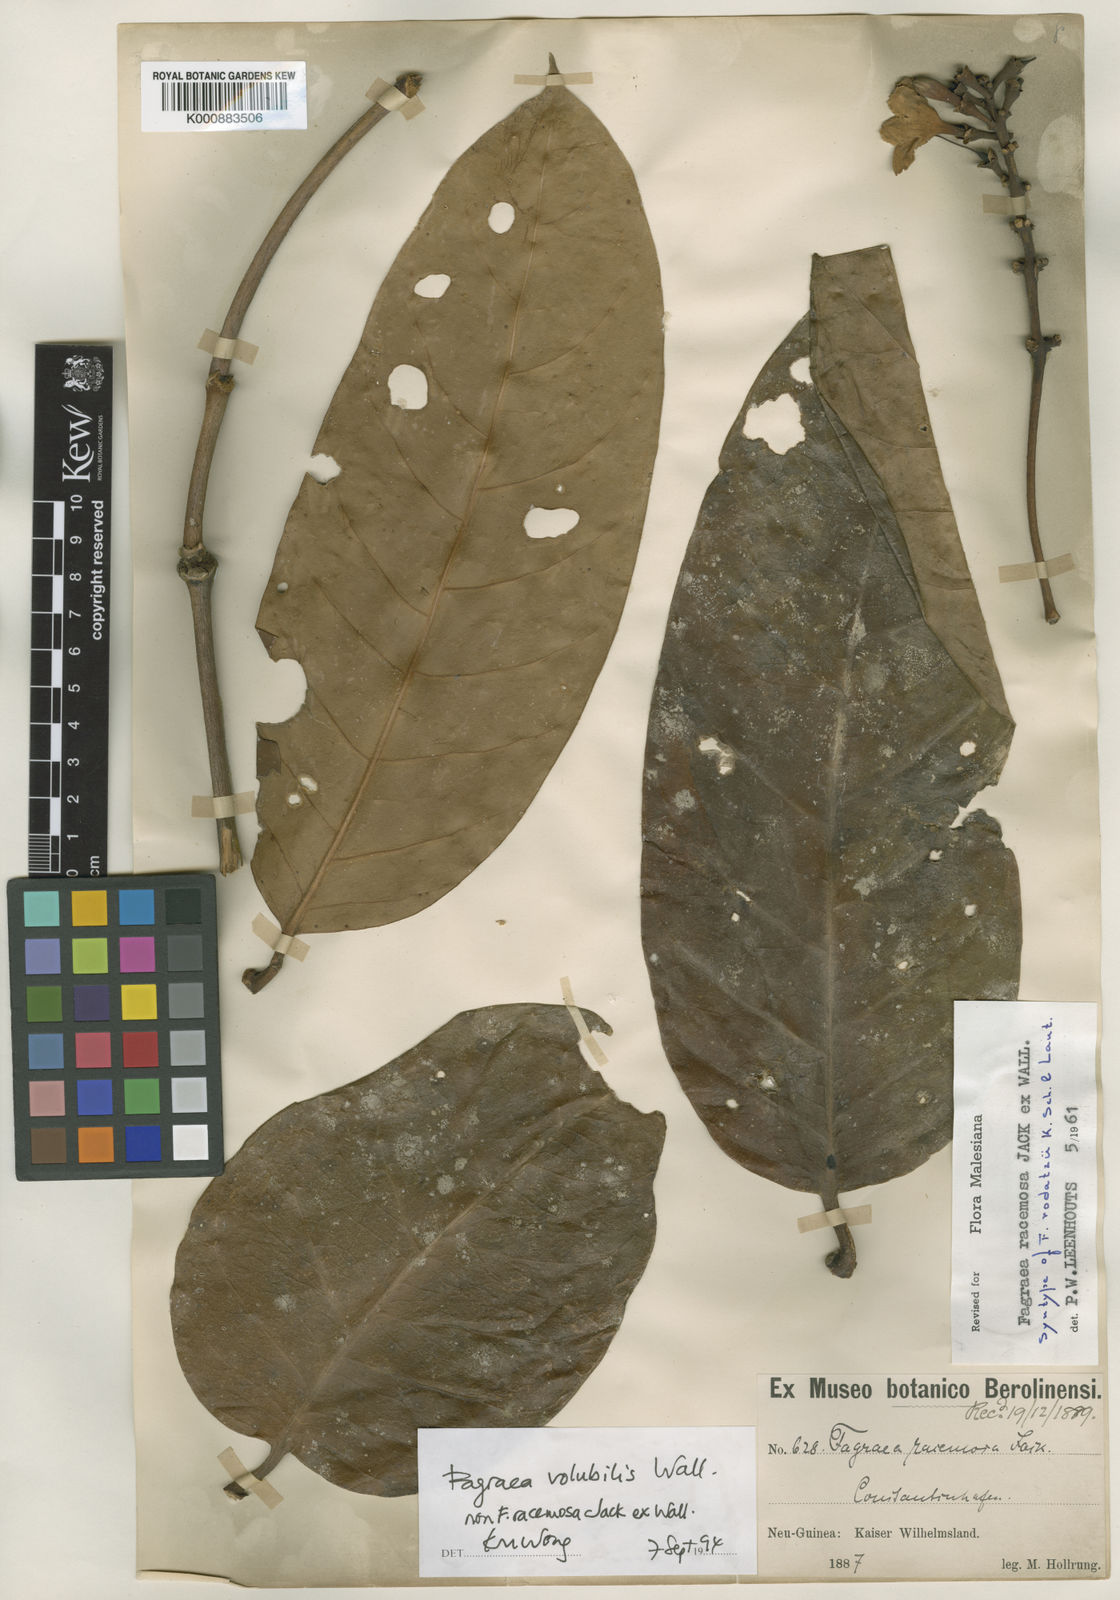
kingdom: Plantae
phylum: Tracheophyta
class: Magnoliopsida
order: Gentianales
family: Gentianaceae
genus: Utania
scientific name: Utania volubilis
